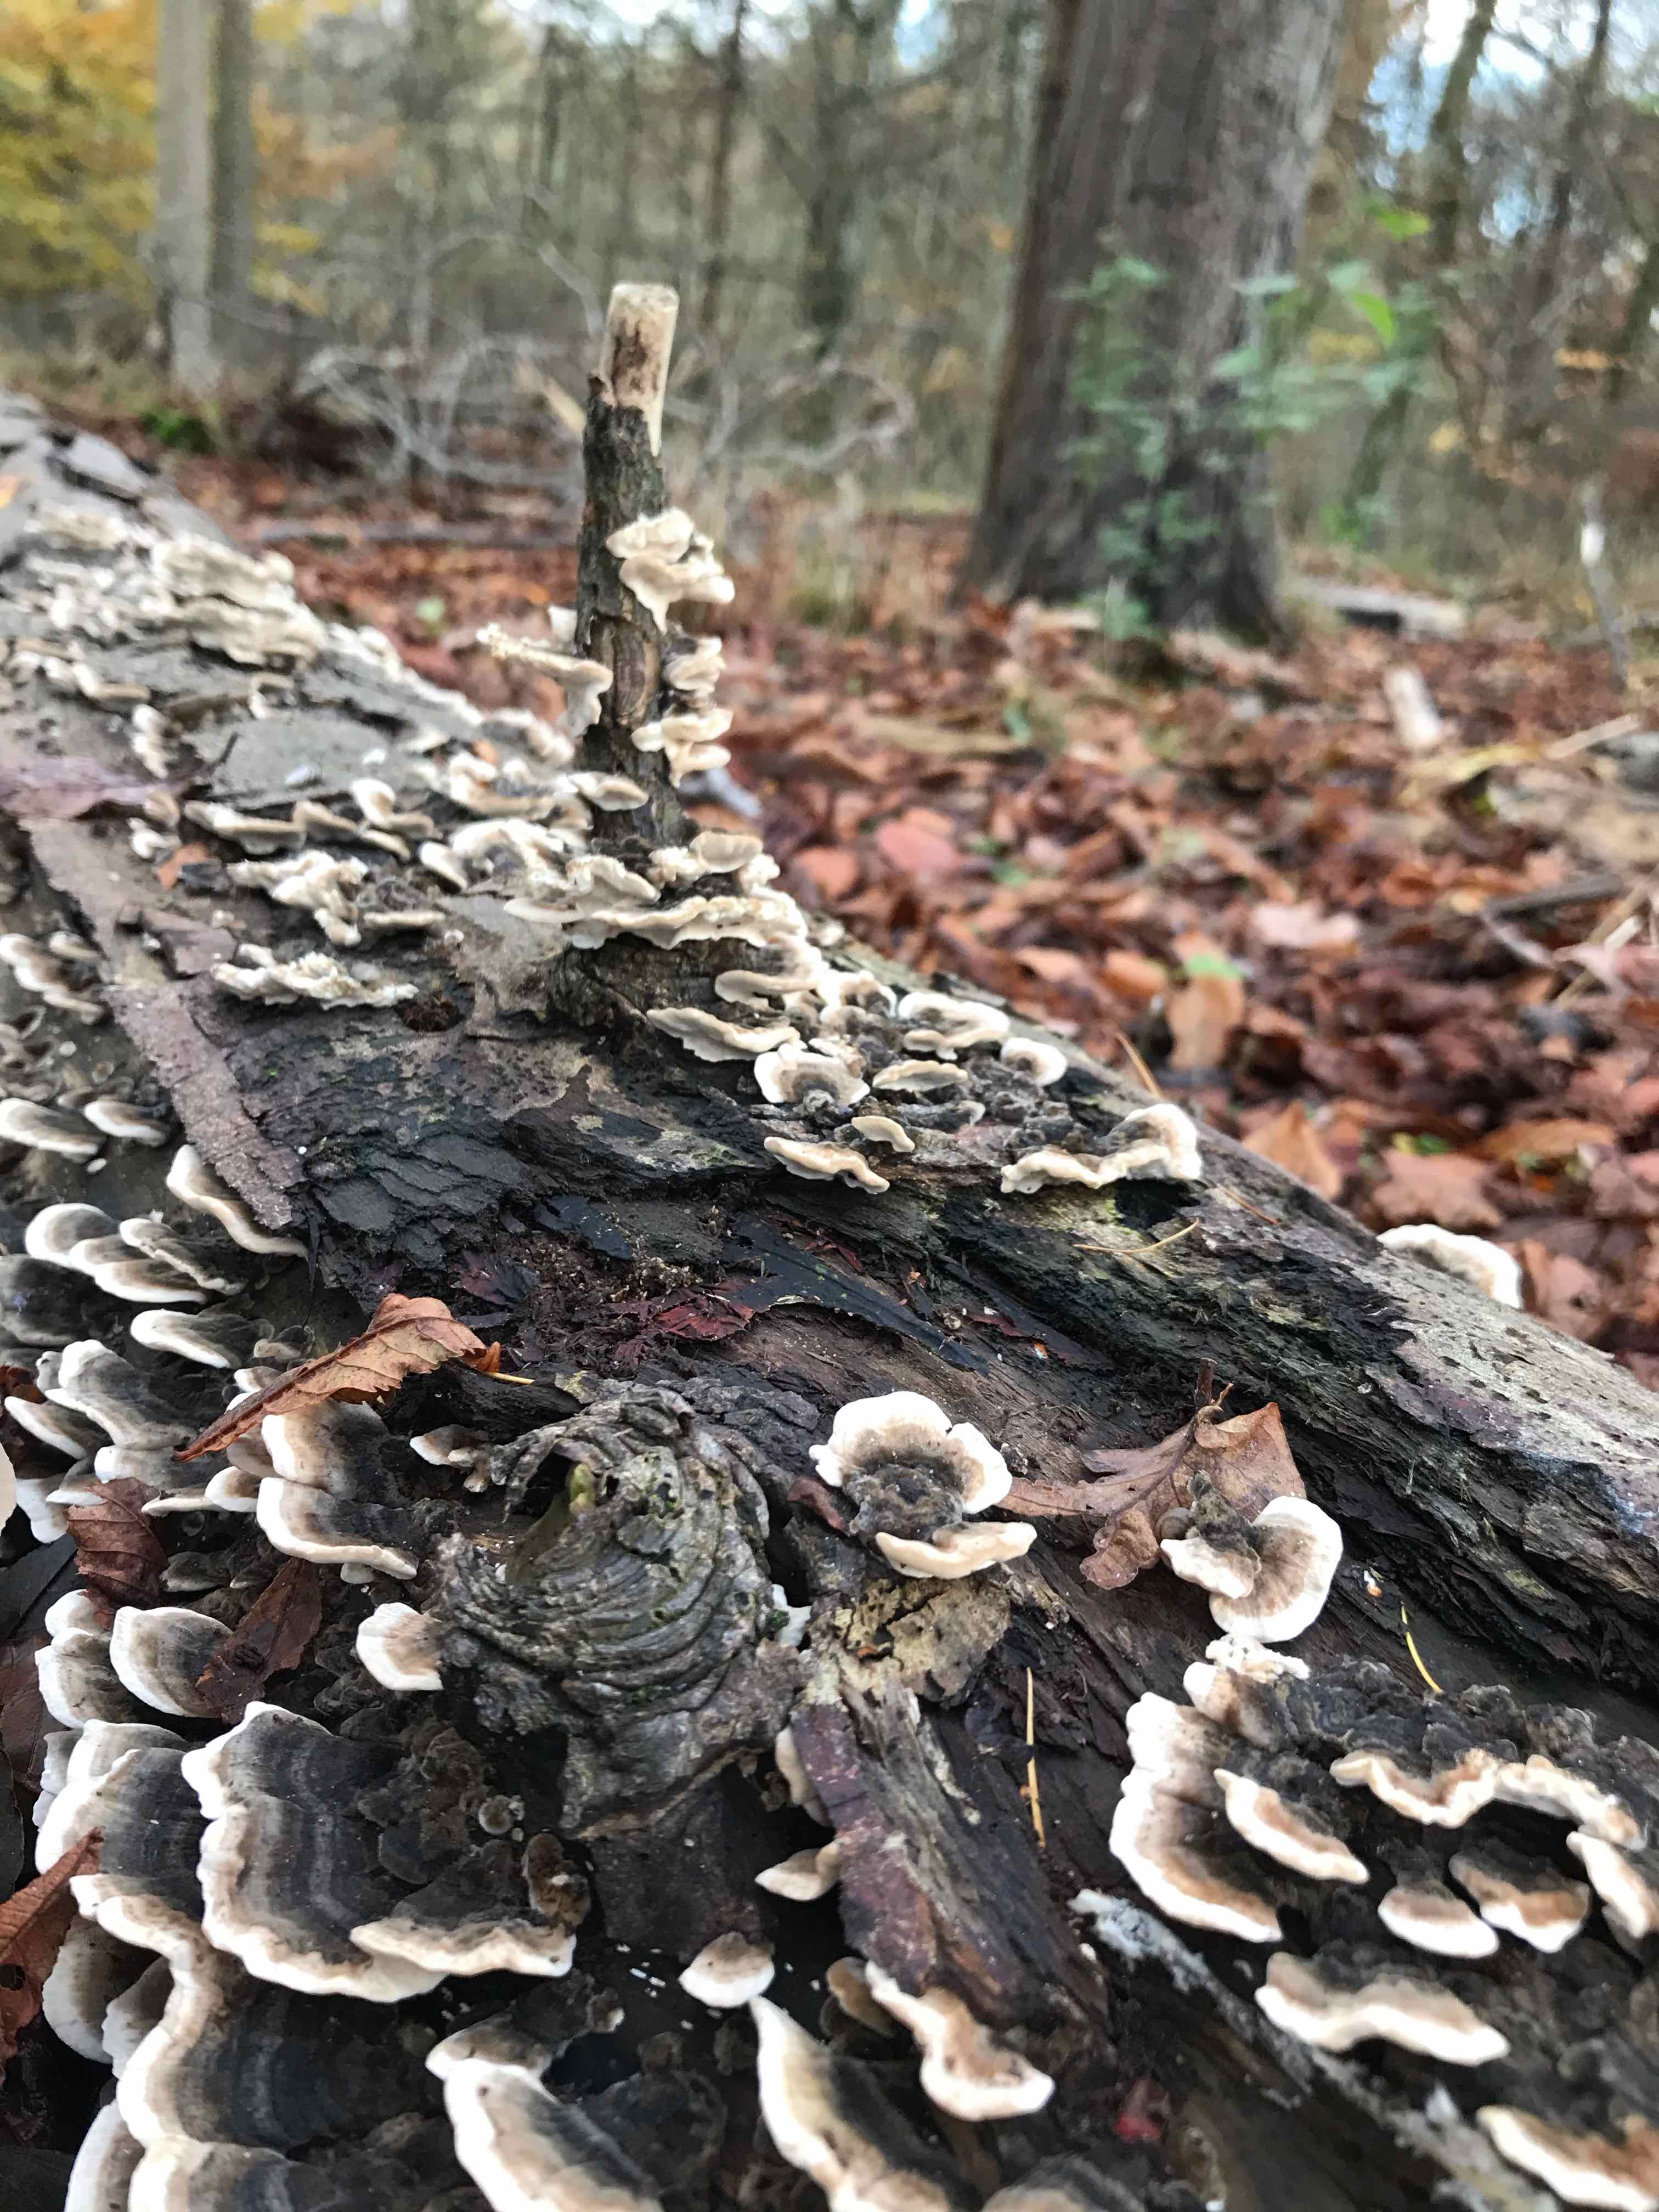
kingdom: Fungi
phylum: Basidiomycota
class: Agaricomycetes
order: Polyporales
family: Polyporaceae
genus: Trametes
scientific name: Trametes versicolor
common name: broget læderporesvamp
